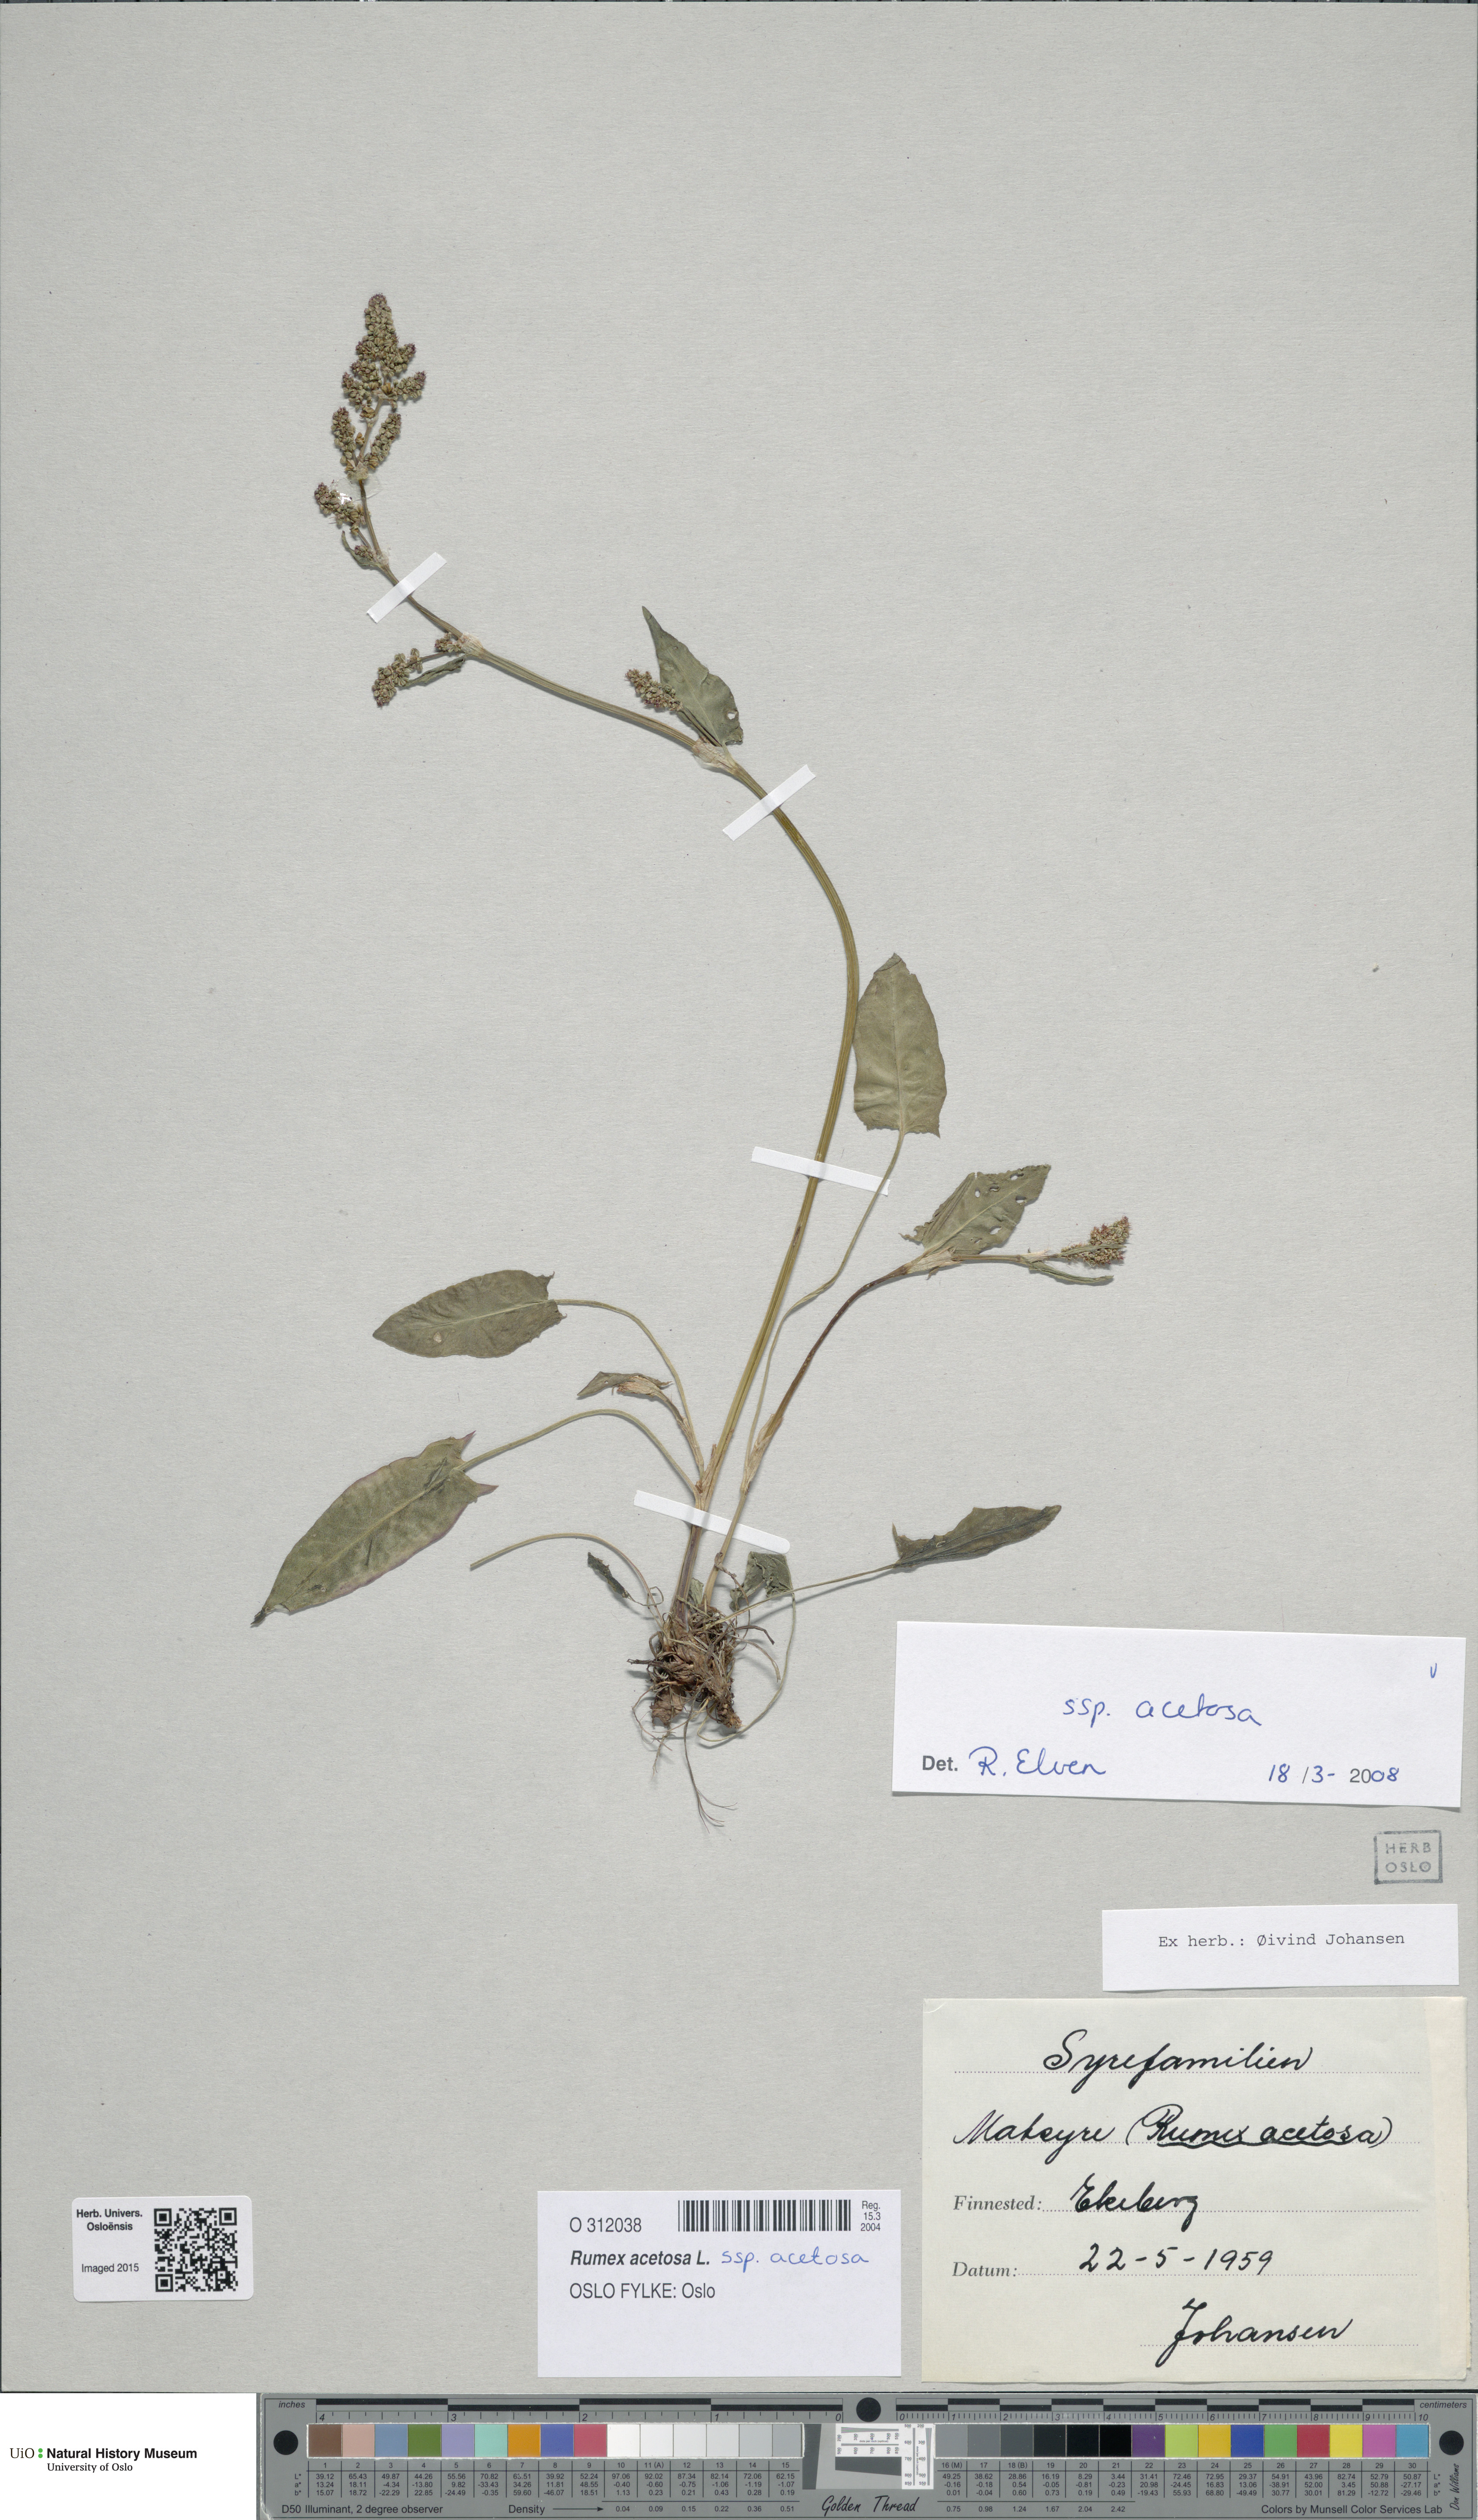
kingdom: Plantae
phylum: Tracheophyta
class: Magnoliopsida
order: Caryophyllales
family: Polygonaceae
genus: Rumex
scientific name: Rumex acetosa
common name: Garden sorrel
